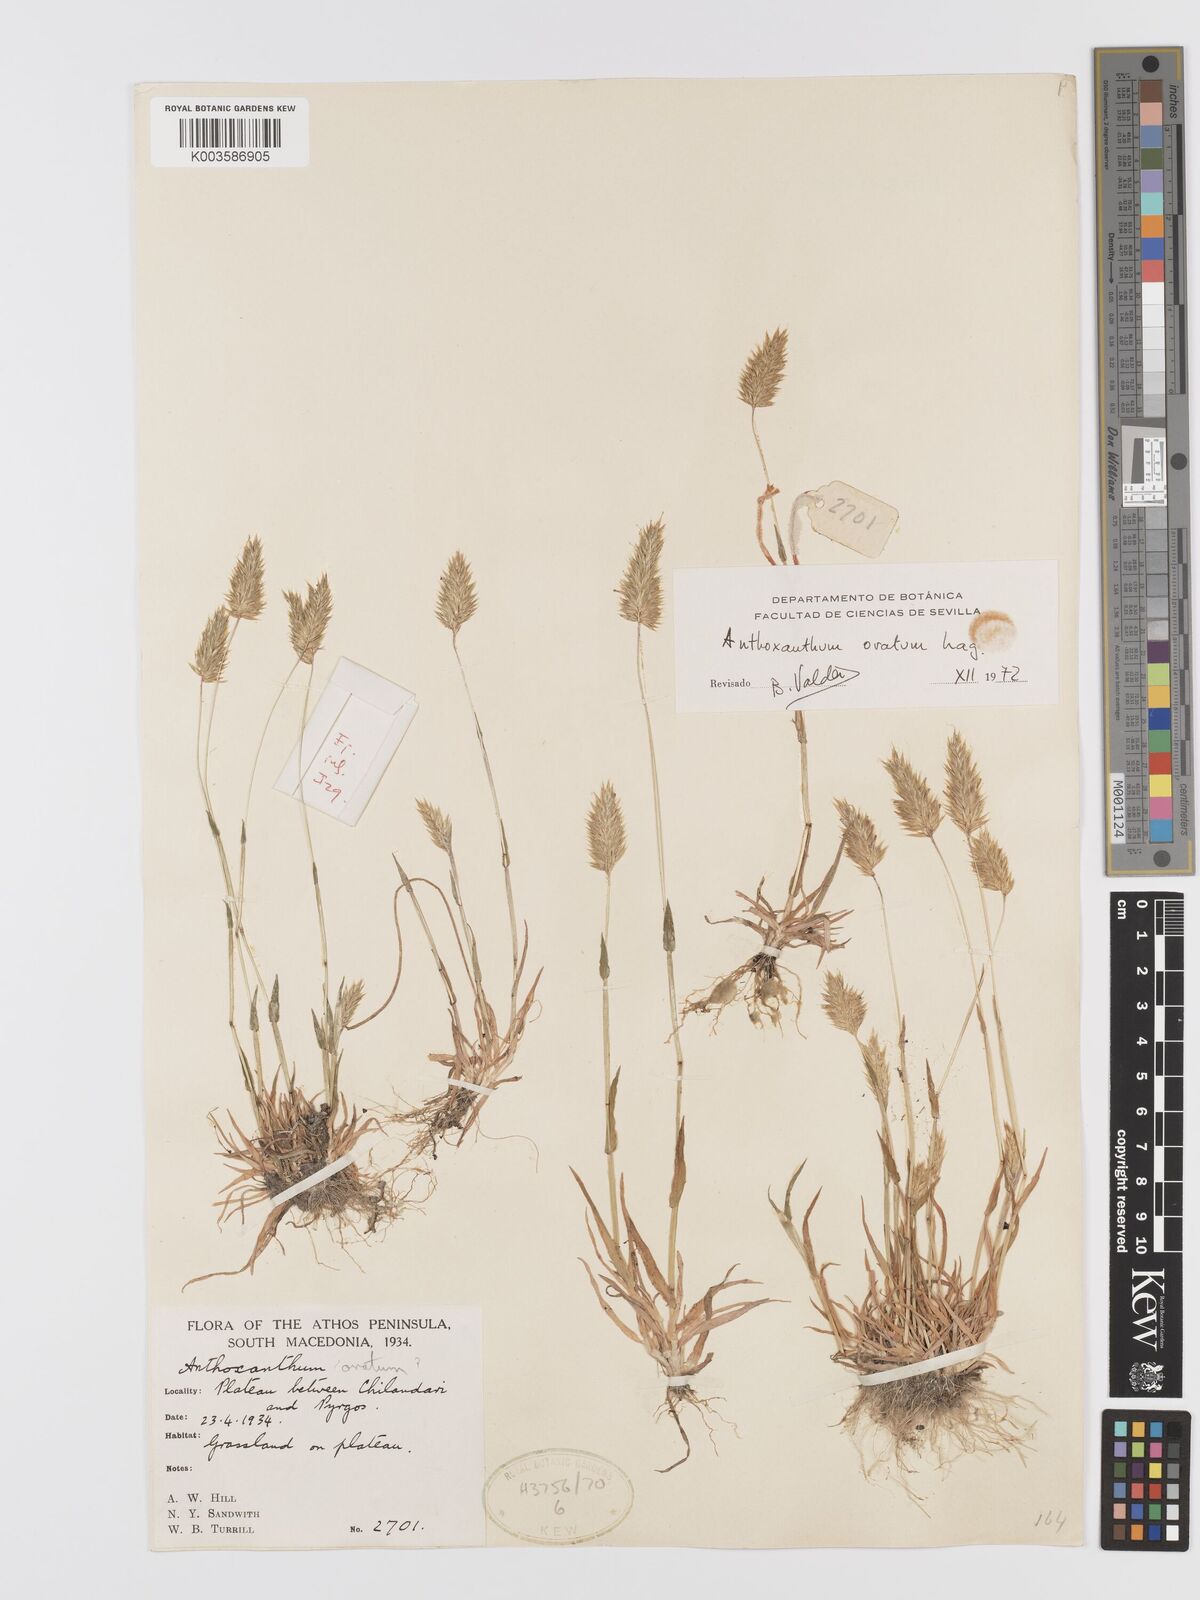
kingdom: Plantae
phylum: Tracheophyta
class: Liliopsida
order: Poales
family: Poaceae
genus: Anthoxanthum
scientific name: Anthoxanthum ovatum
